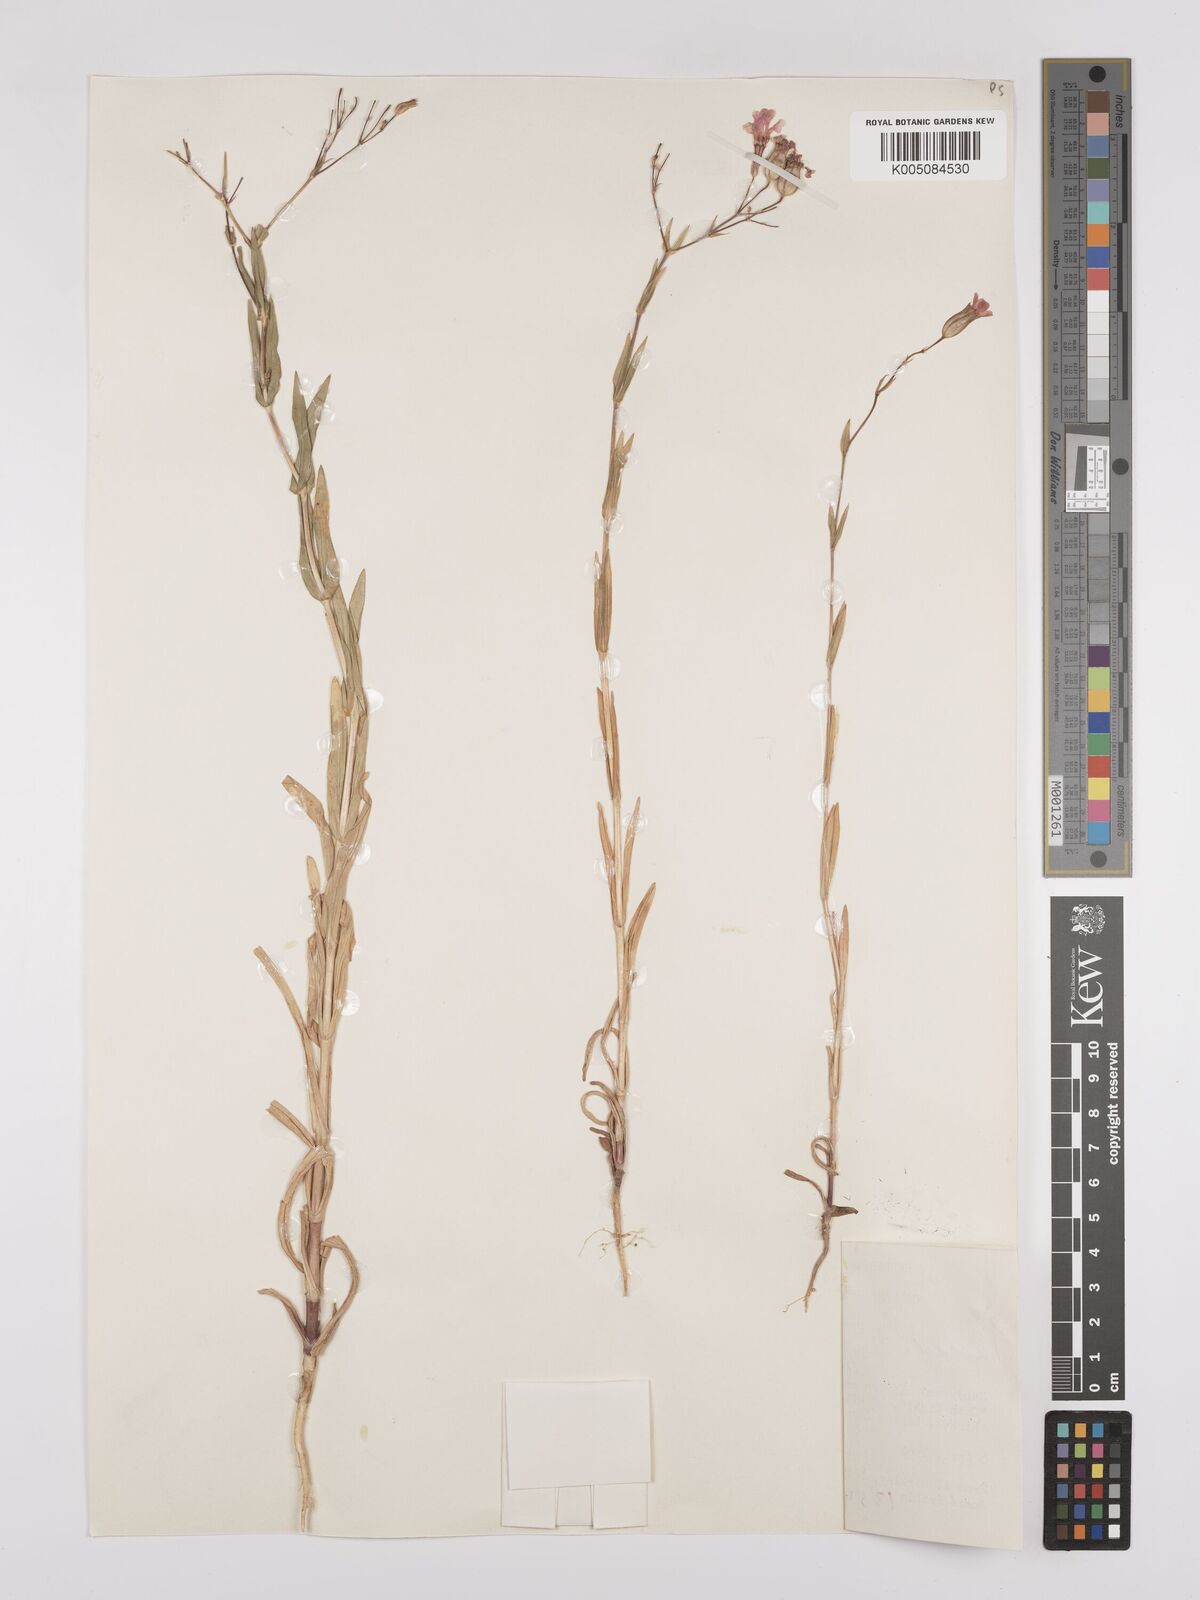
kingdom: Plantae
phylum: Tracheophyta
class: Magnoliopsida
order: Caryophyllales
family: Caryophyllaceae
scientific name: Caryophyllaceae
